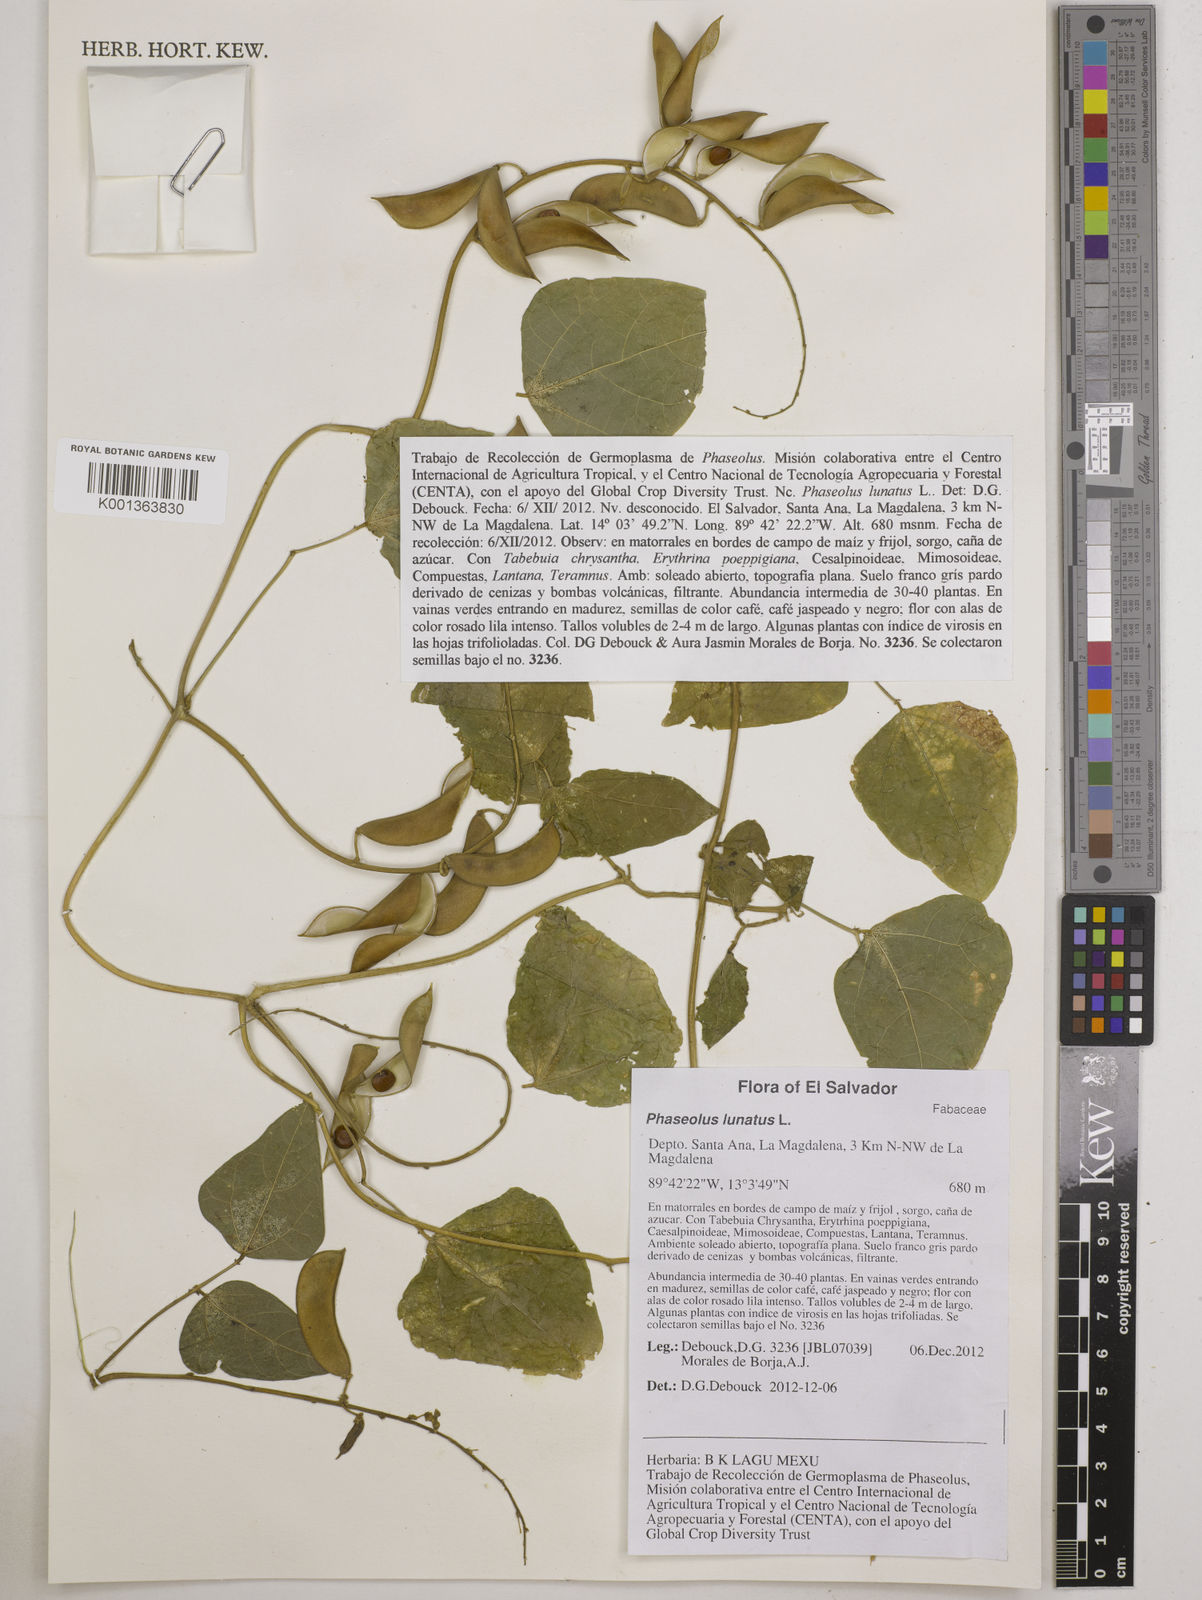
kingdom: Plantae
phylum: Tracheophyta
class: Magnoliopsida
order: Fabales
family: Fabaceae
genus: Phaseolus
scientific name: Phaseolus lunatus
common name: Sieva bean
